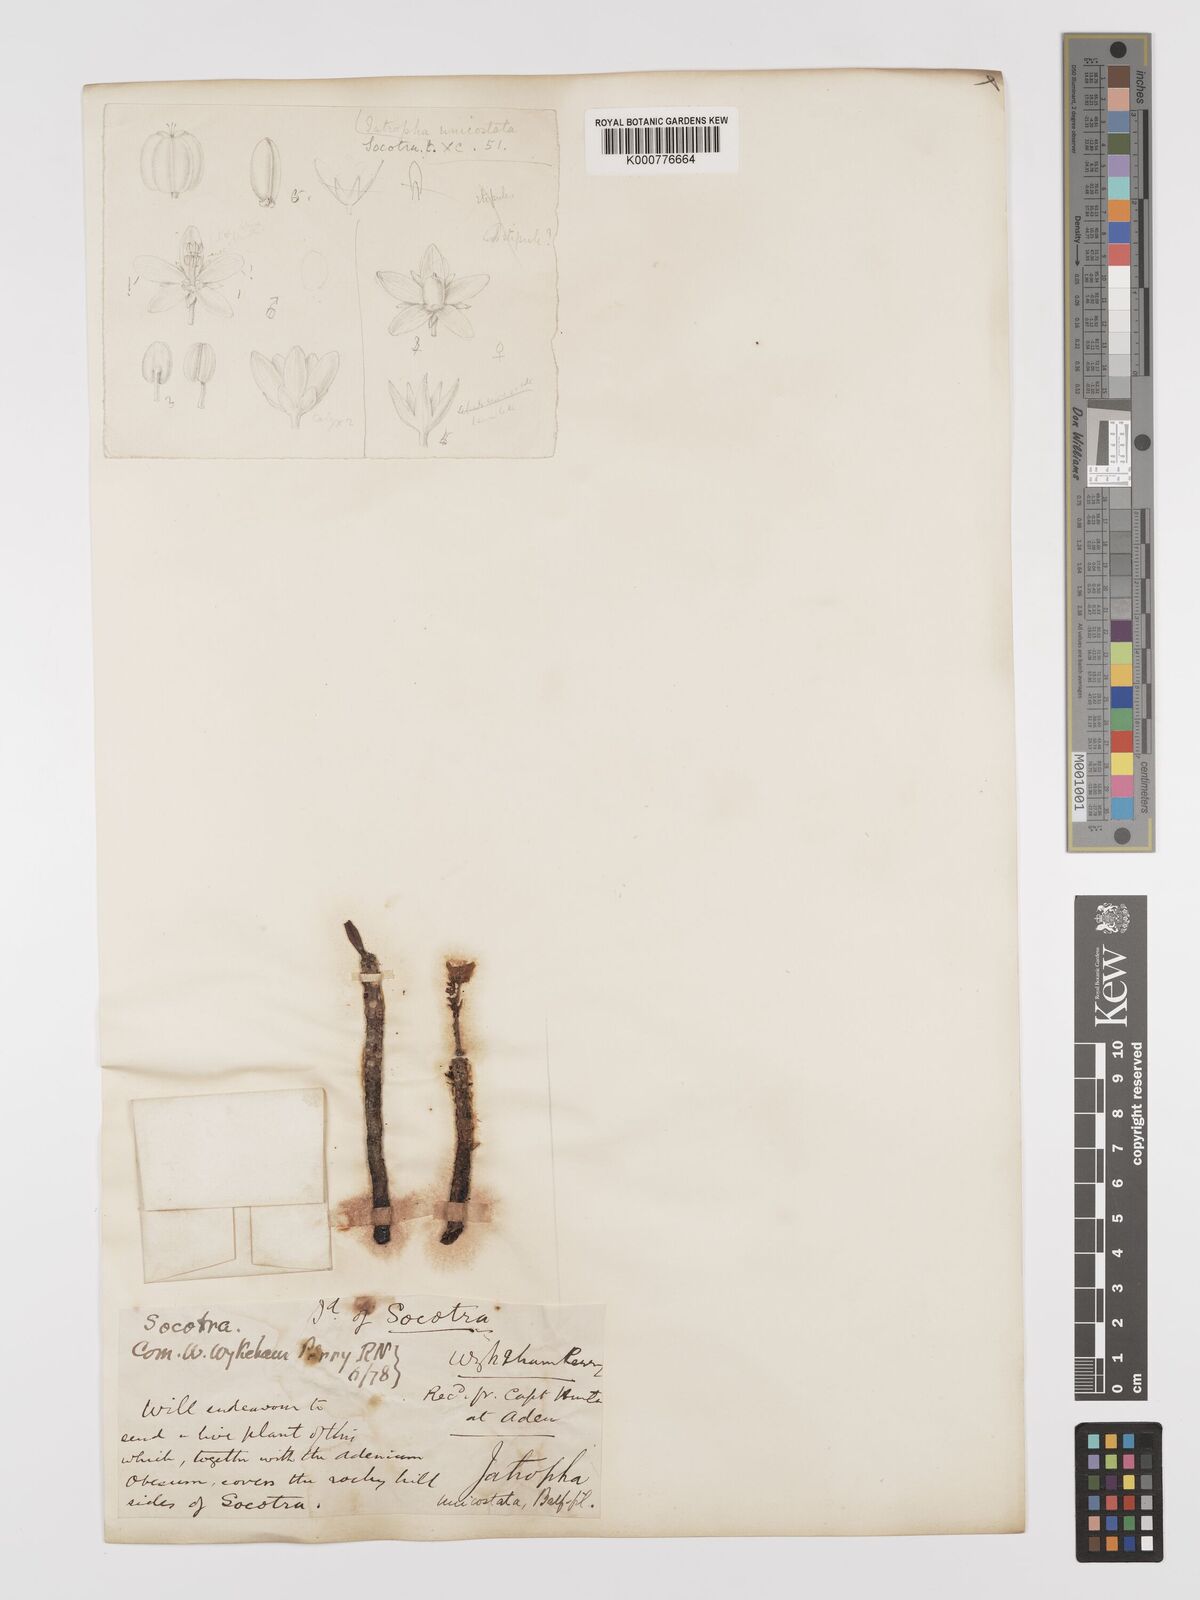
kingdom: Plantae
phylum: Tracheophyta
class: Magnoliopsida
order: Malpighiales
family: Euphorbiaceae
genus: Jatropha
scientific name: Jatropha unicostata
